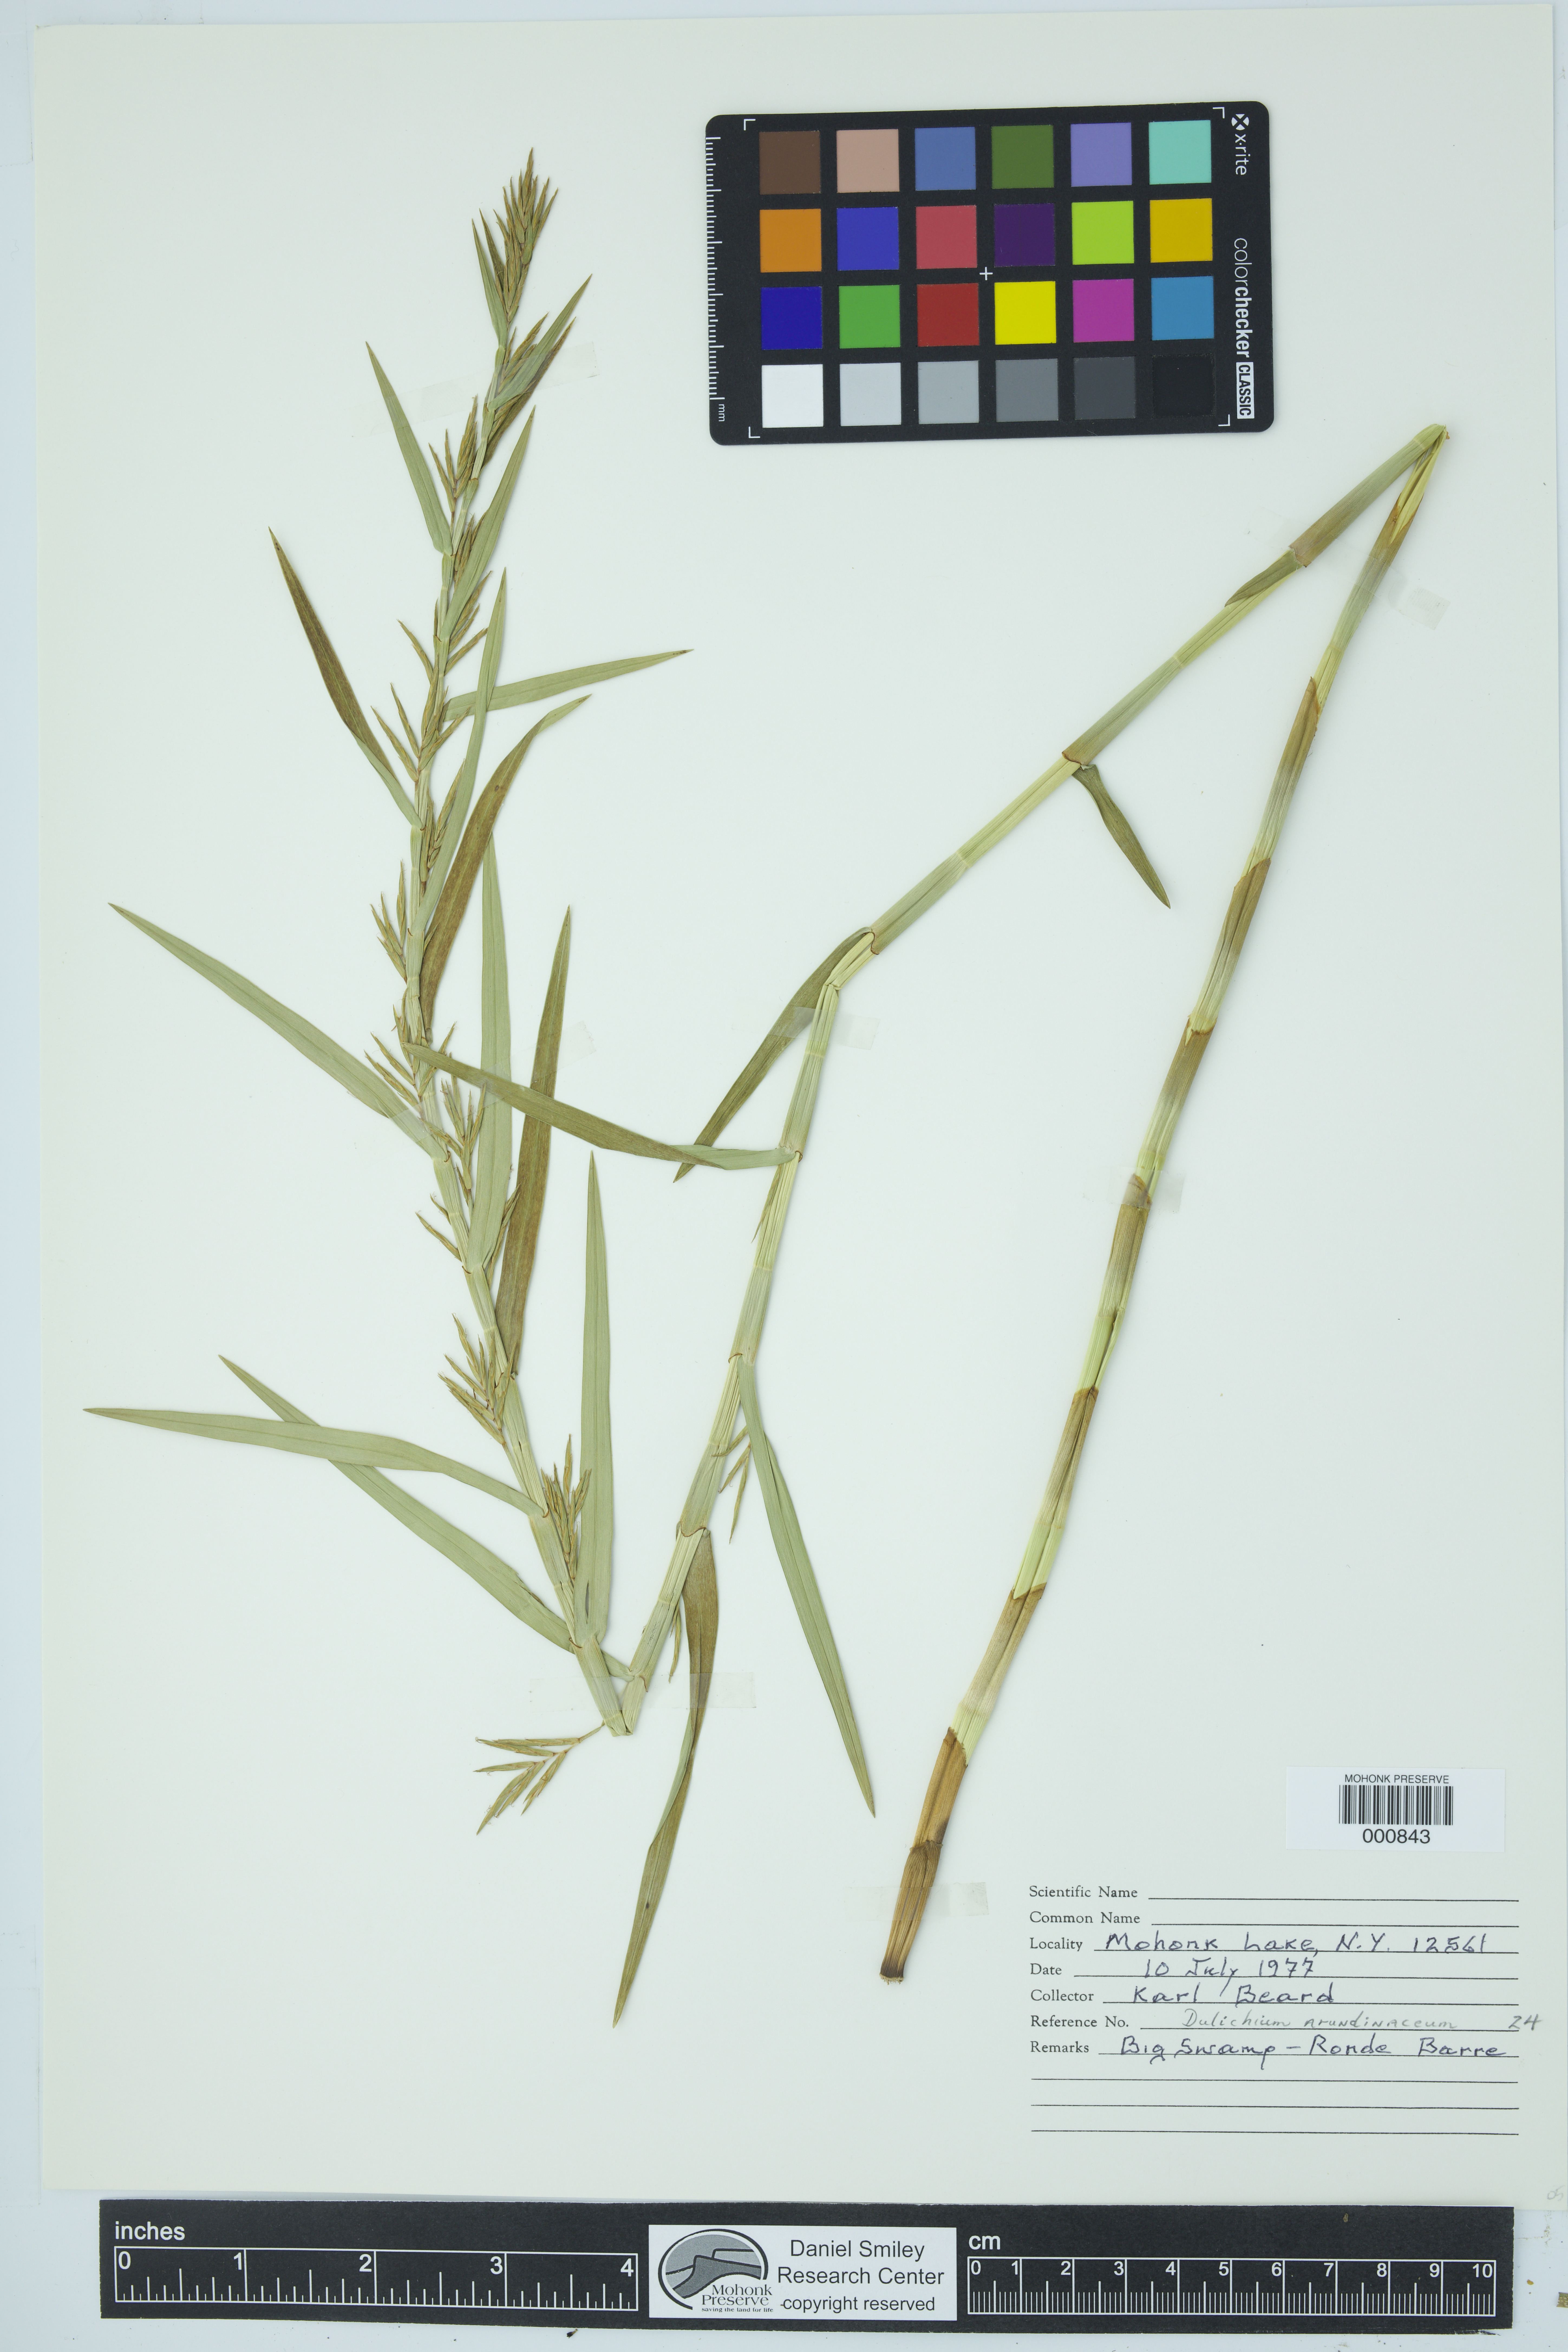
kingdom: Plantae
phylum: Tracheophyta
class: Liliopsida
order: Poales
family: Cyperaceae
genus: Dulichium
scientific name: Dulichium arundinaceum
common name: Three-way sedge
